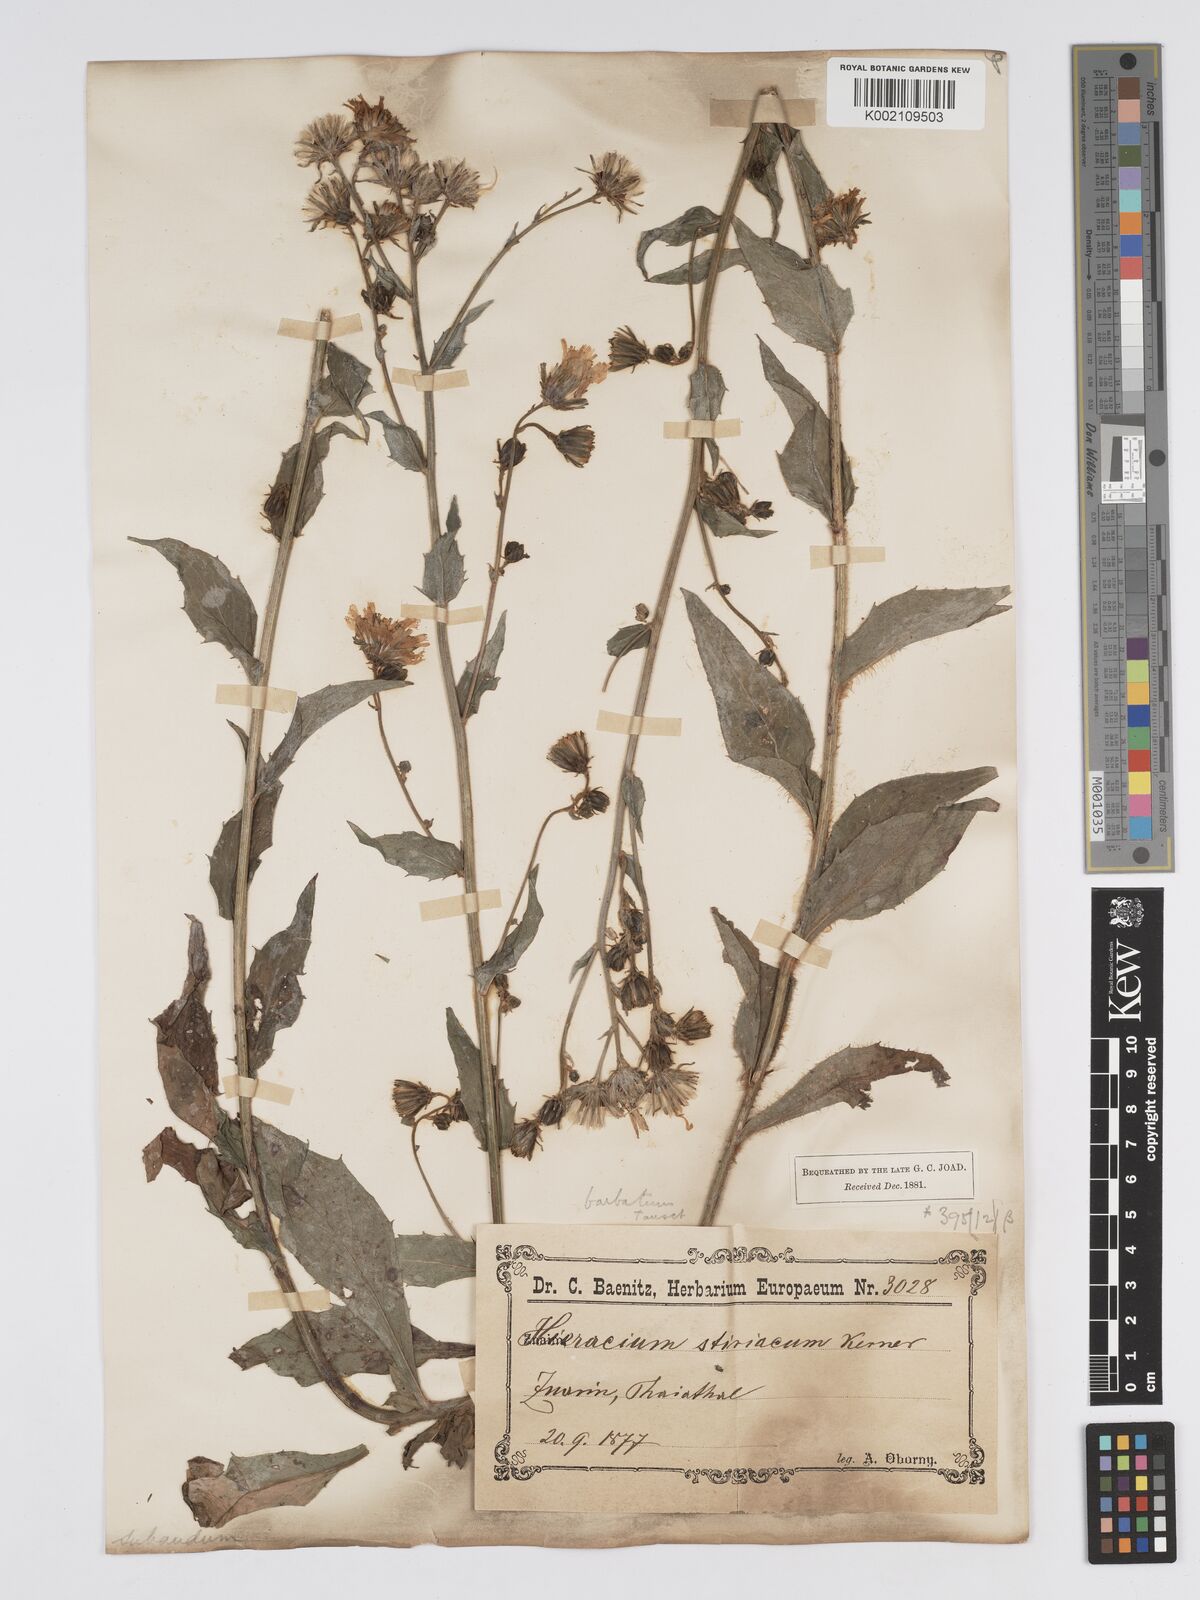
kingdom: Plantae
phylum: Tracheophyta
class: Magnoliopsida
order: Asterales
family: Asteraceae
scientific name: Asteraceae
